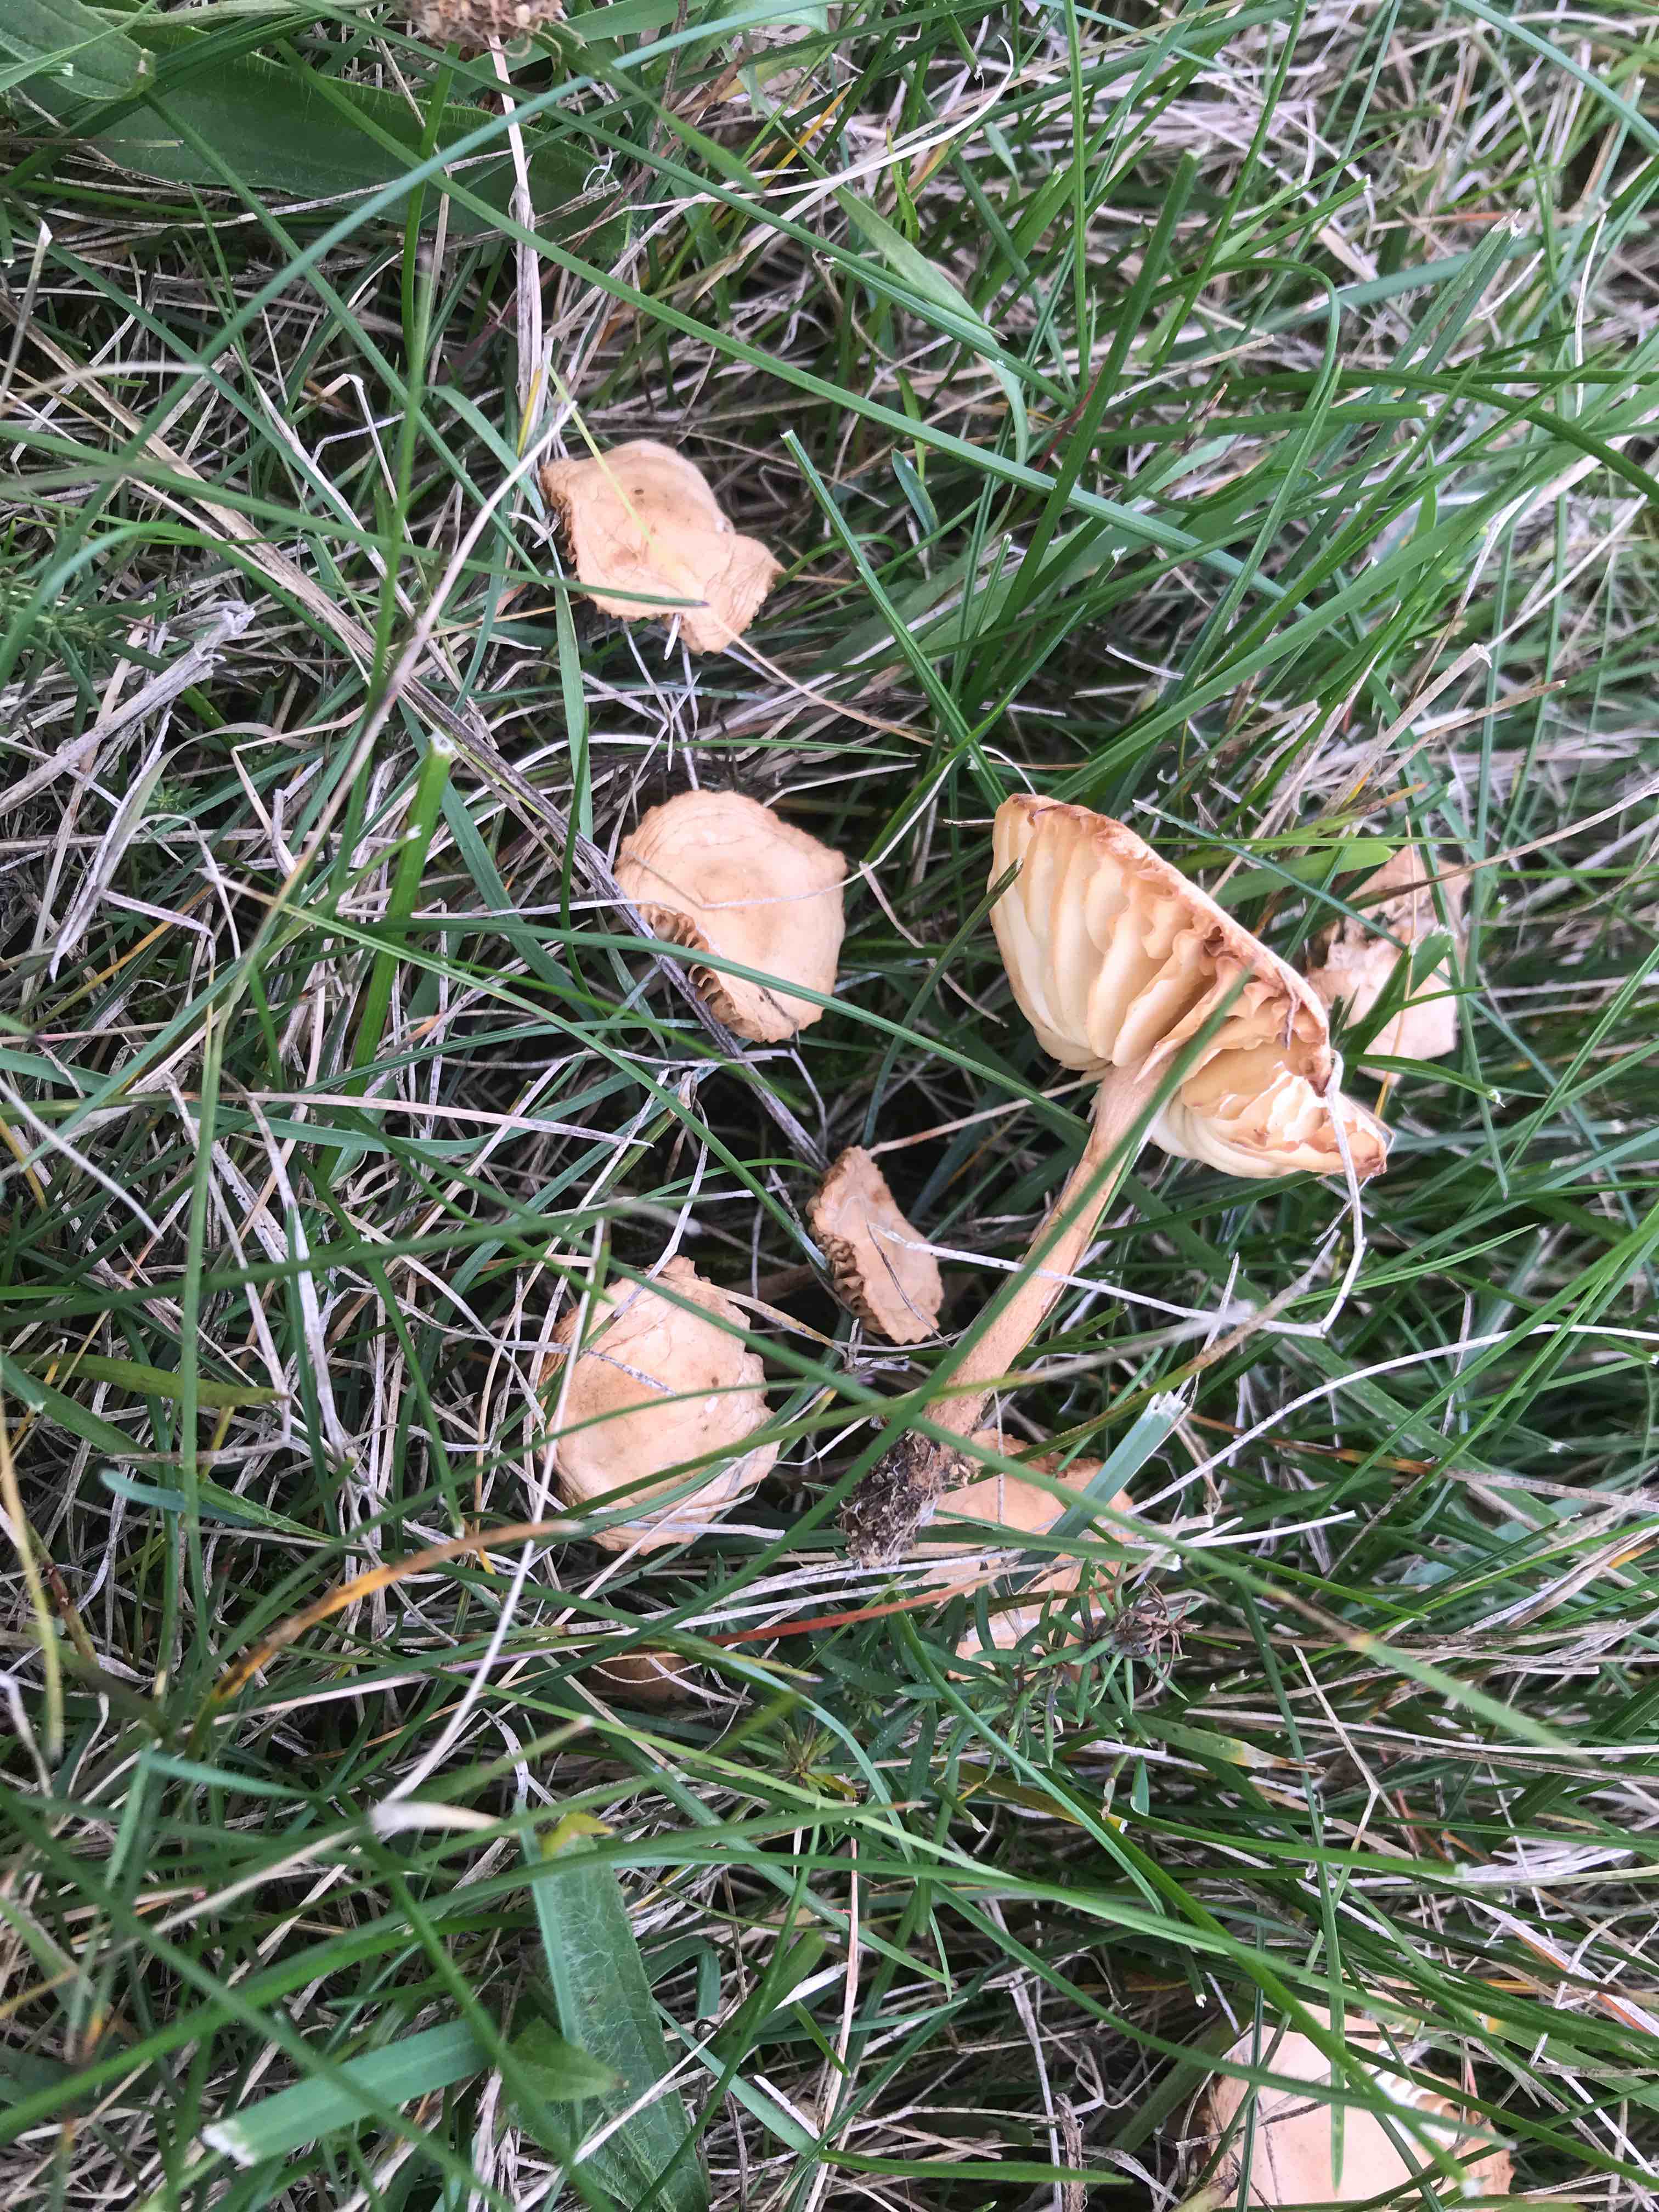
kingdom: Fungi
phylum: Basidiomycota
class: Agaricomycetes
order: Agaricales
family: Marasmiaceae
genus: Marasmius
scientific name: Marasmius oreades
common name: elledans-bruskhat
